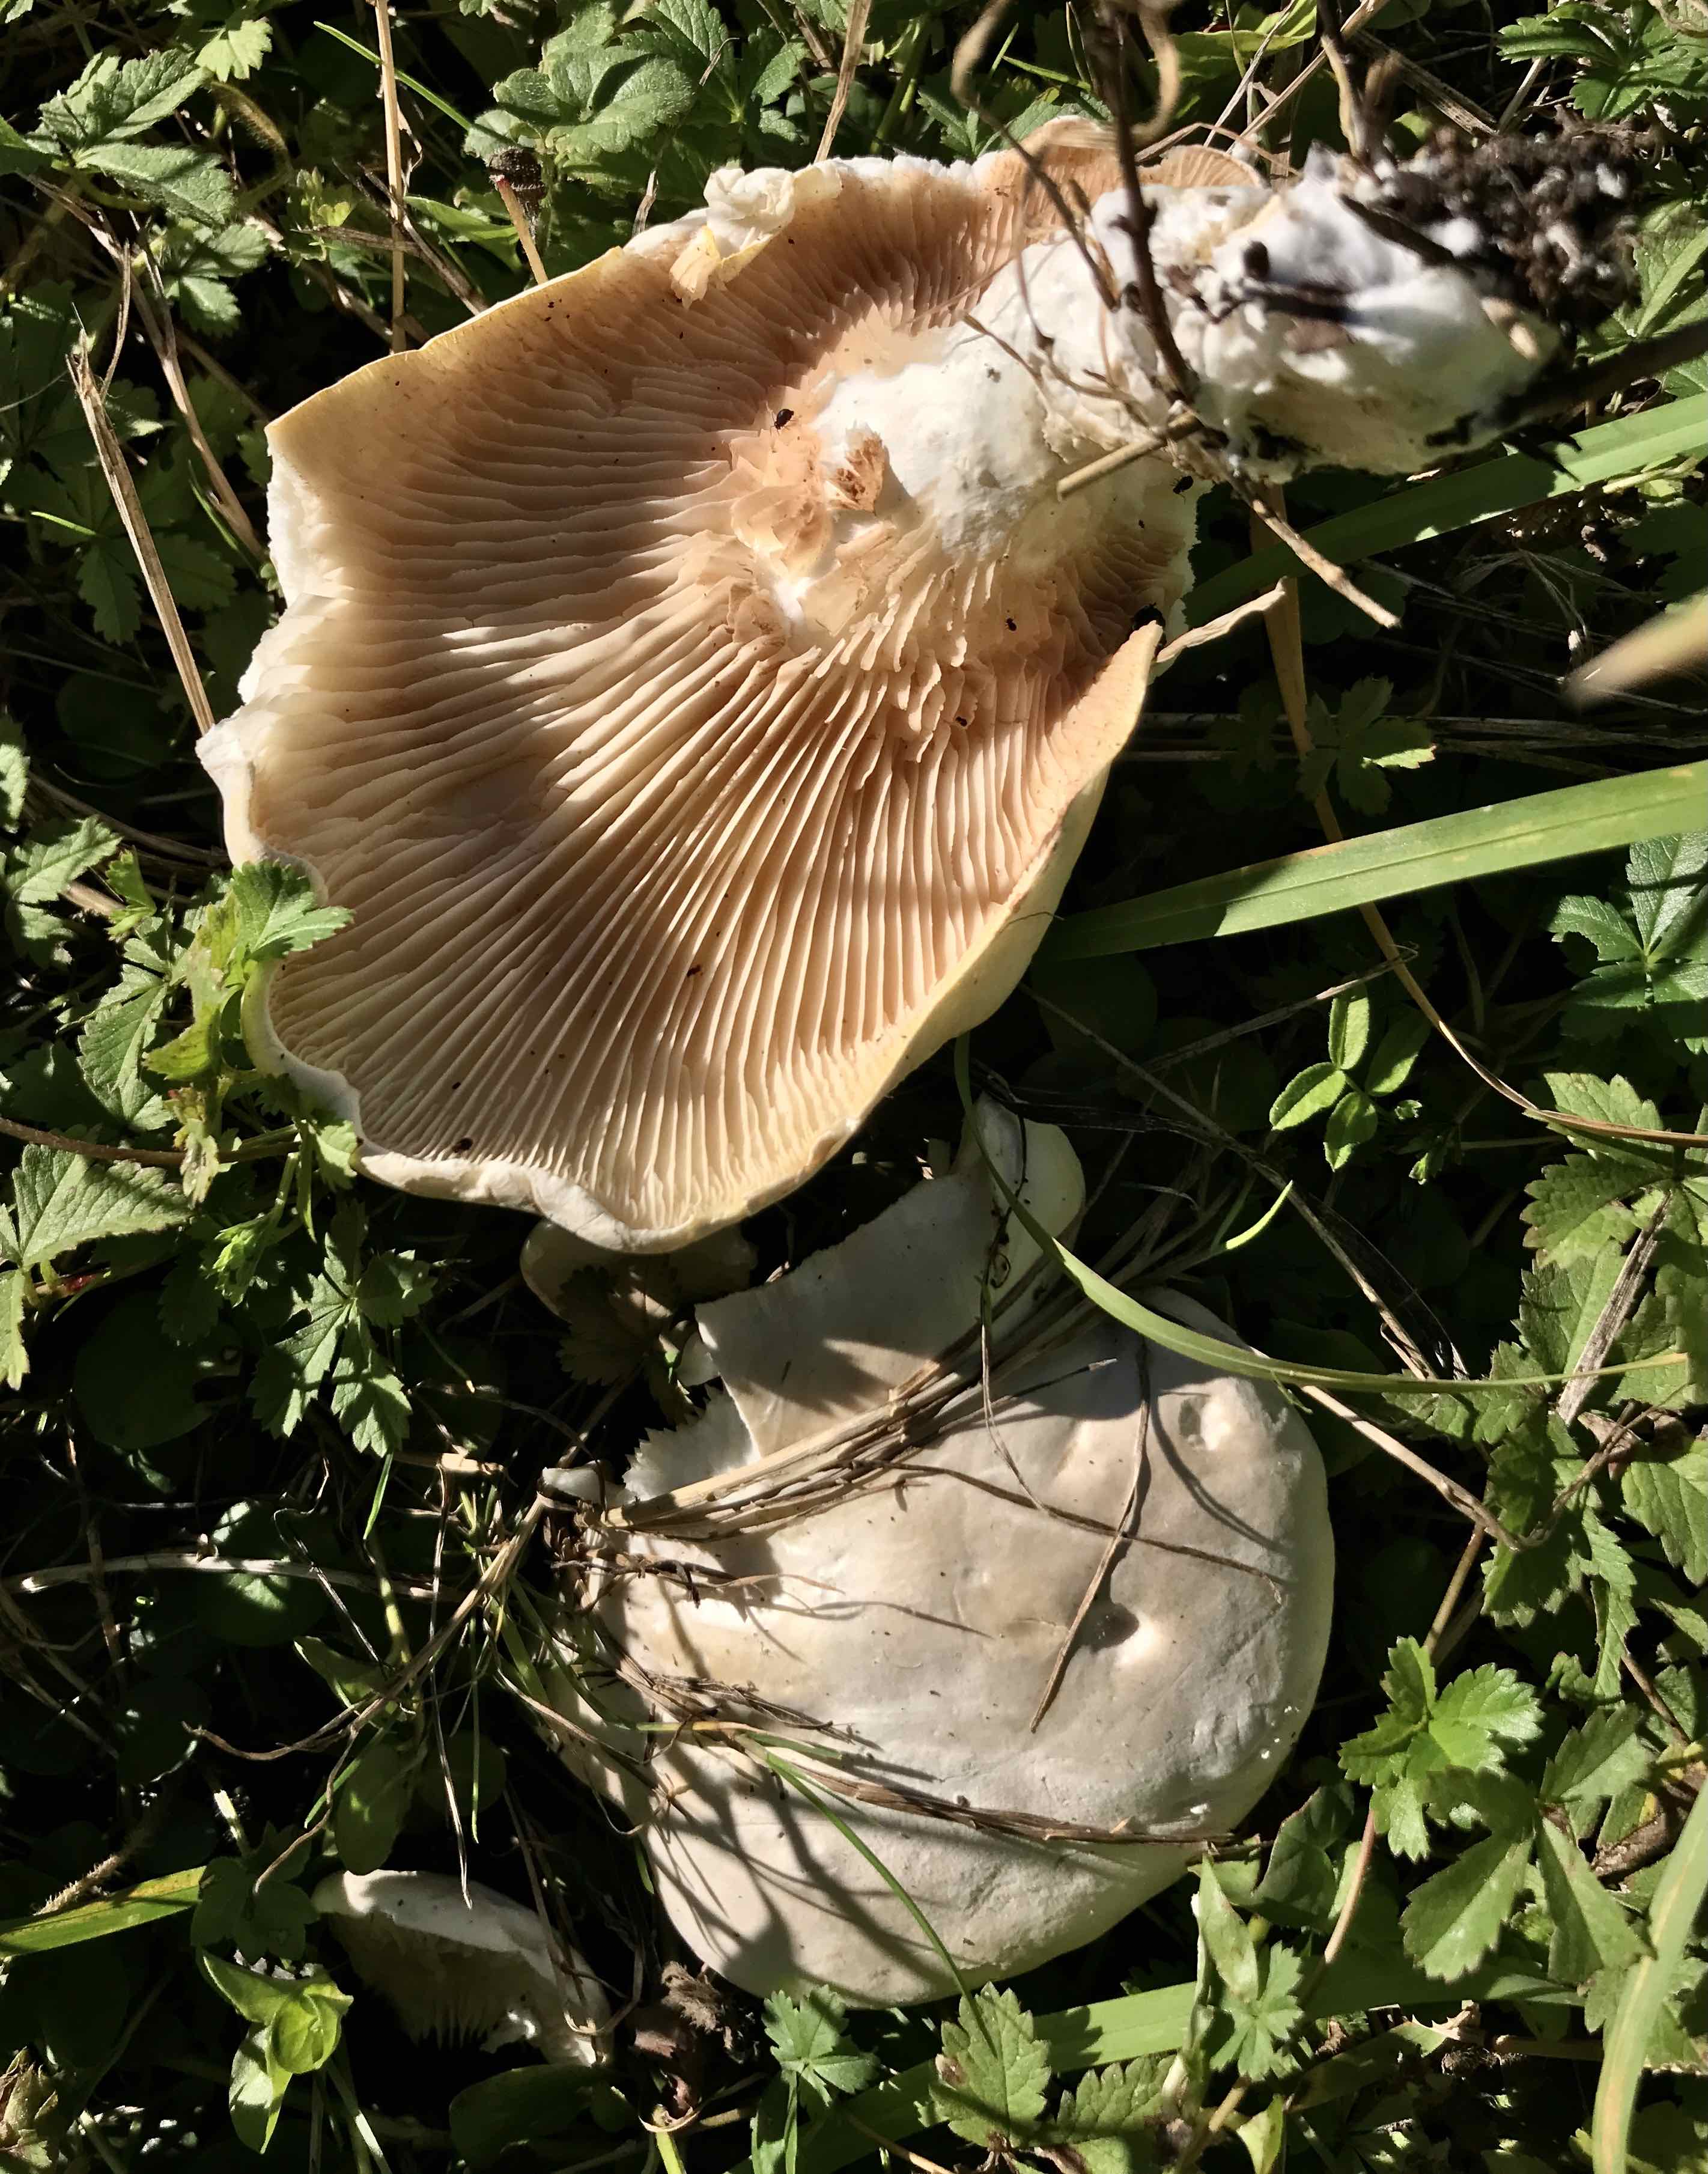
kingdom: Fungi
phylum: Basidiomycota
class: Agaricomycetes
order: Agaricales
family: Entolomataceae
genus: Clitopilus
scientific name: Clitopilus prunulus
